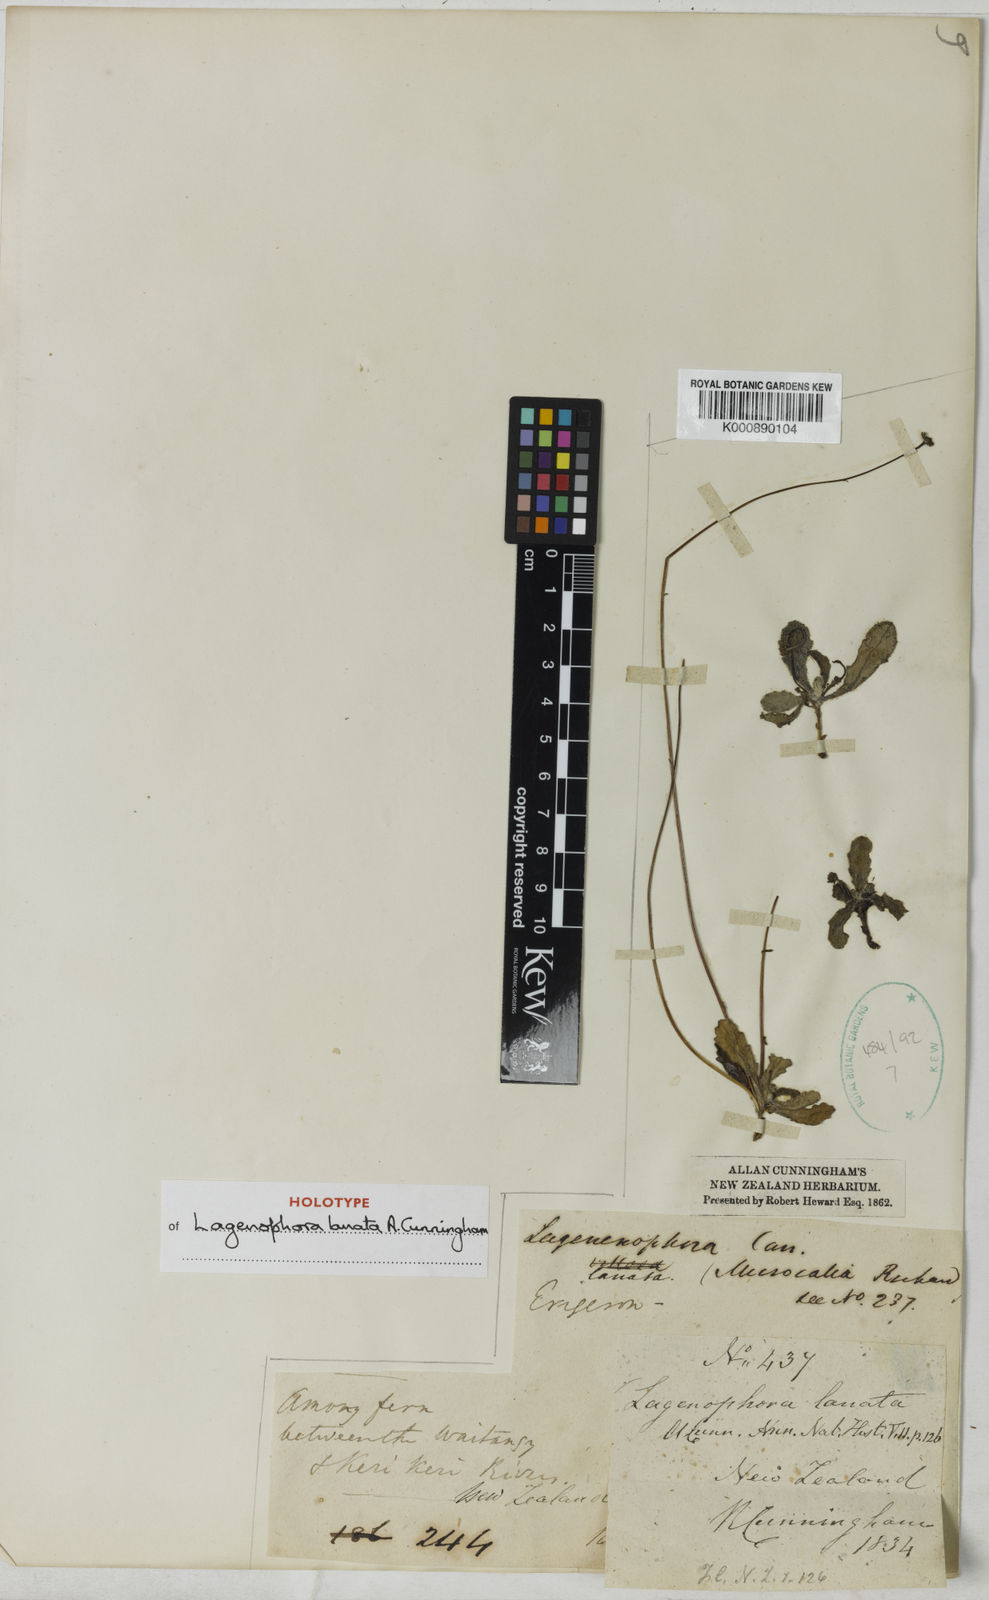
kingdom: Plantae
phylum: Tracheophyta
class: Magnoliopsida
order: Asterales
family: Asteraceae
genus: Lagenophora
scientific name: Lagenophora sublyrata ter
